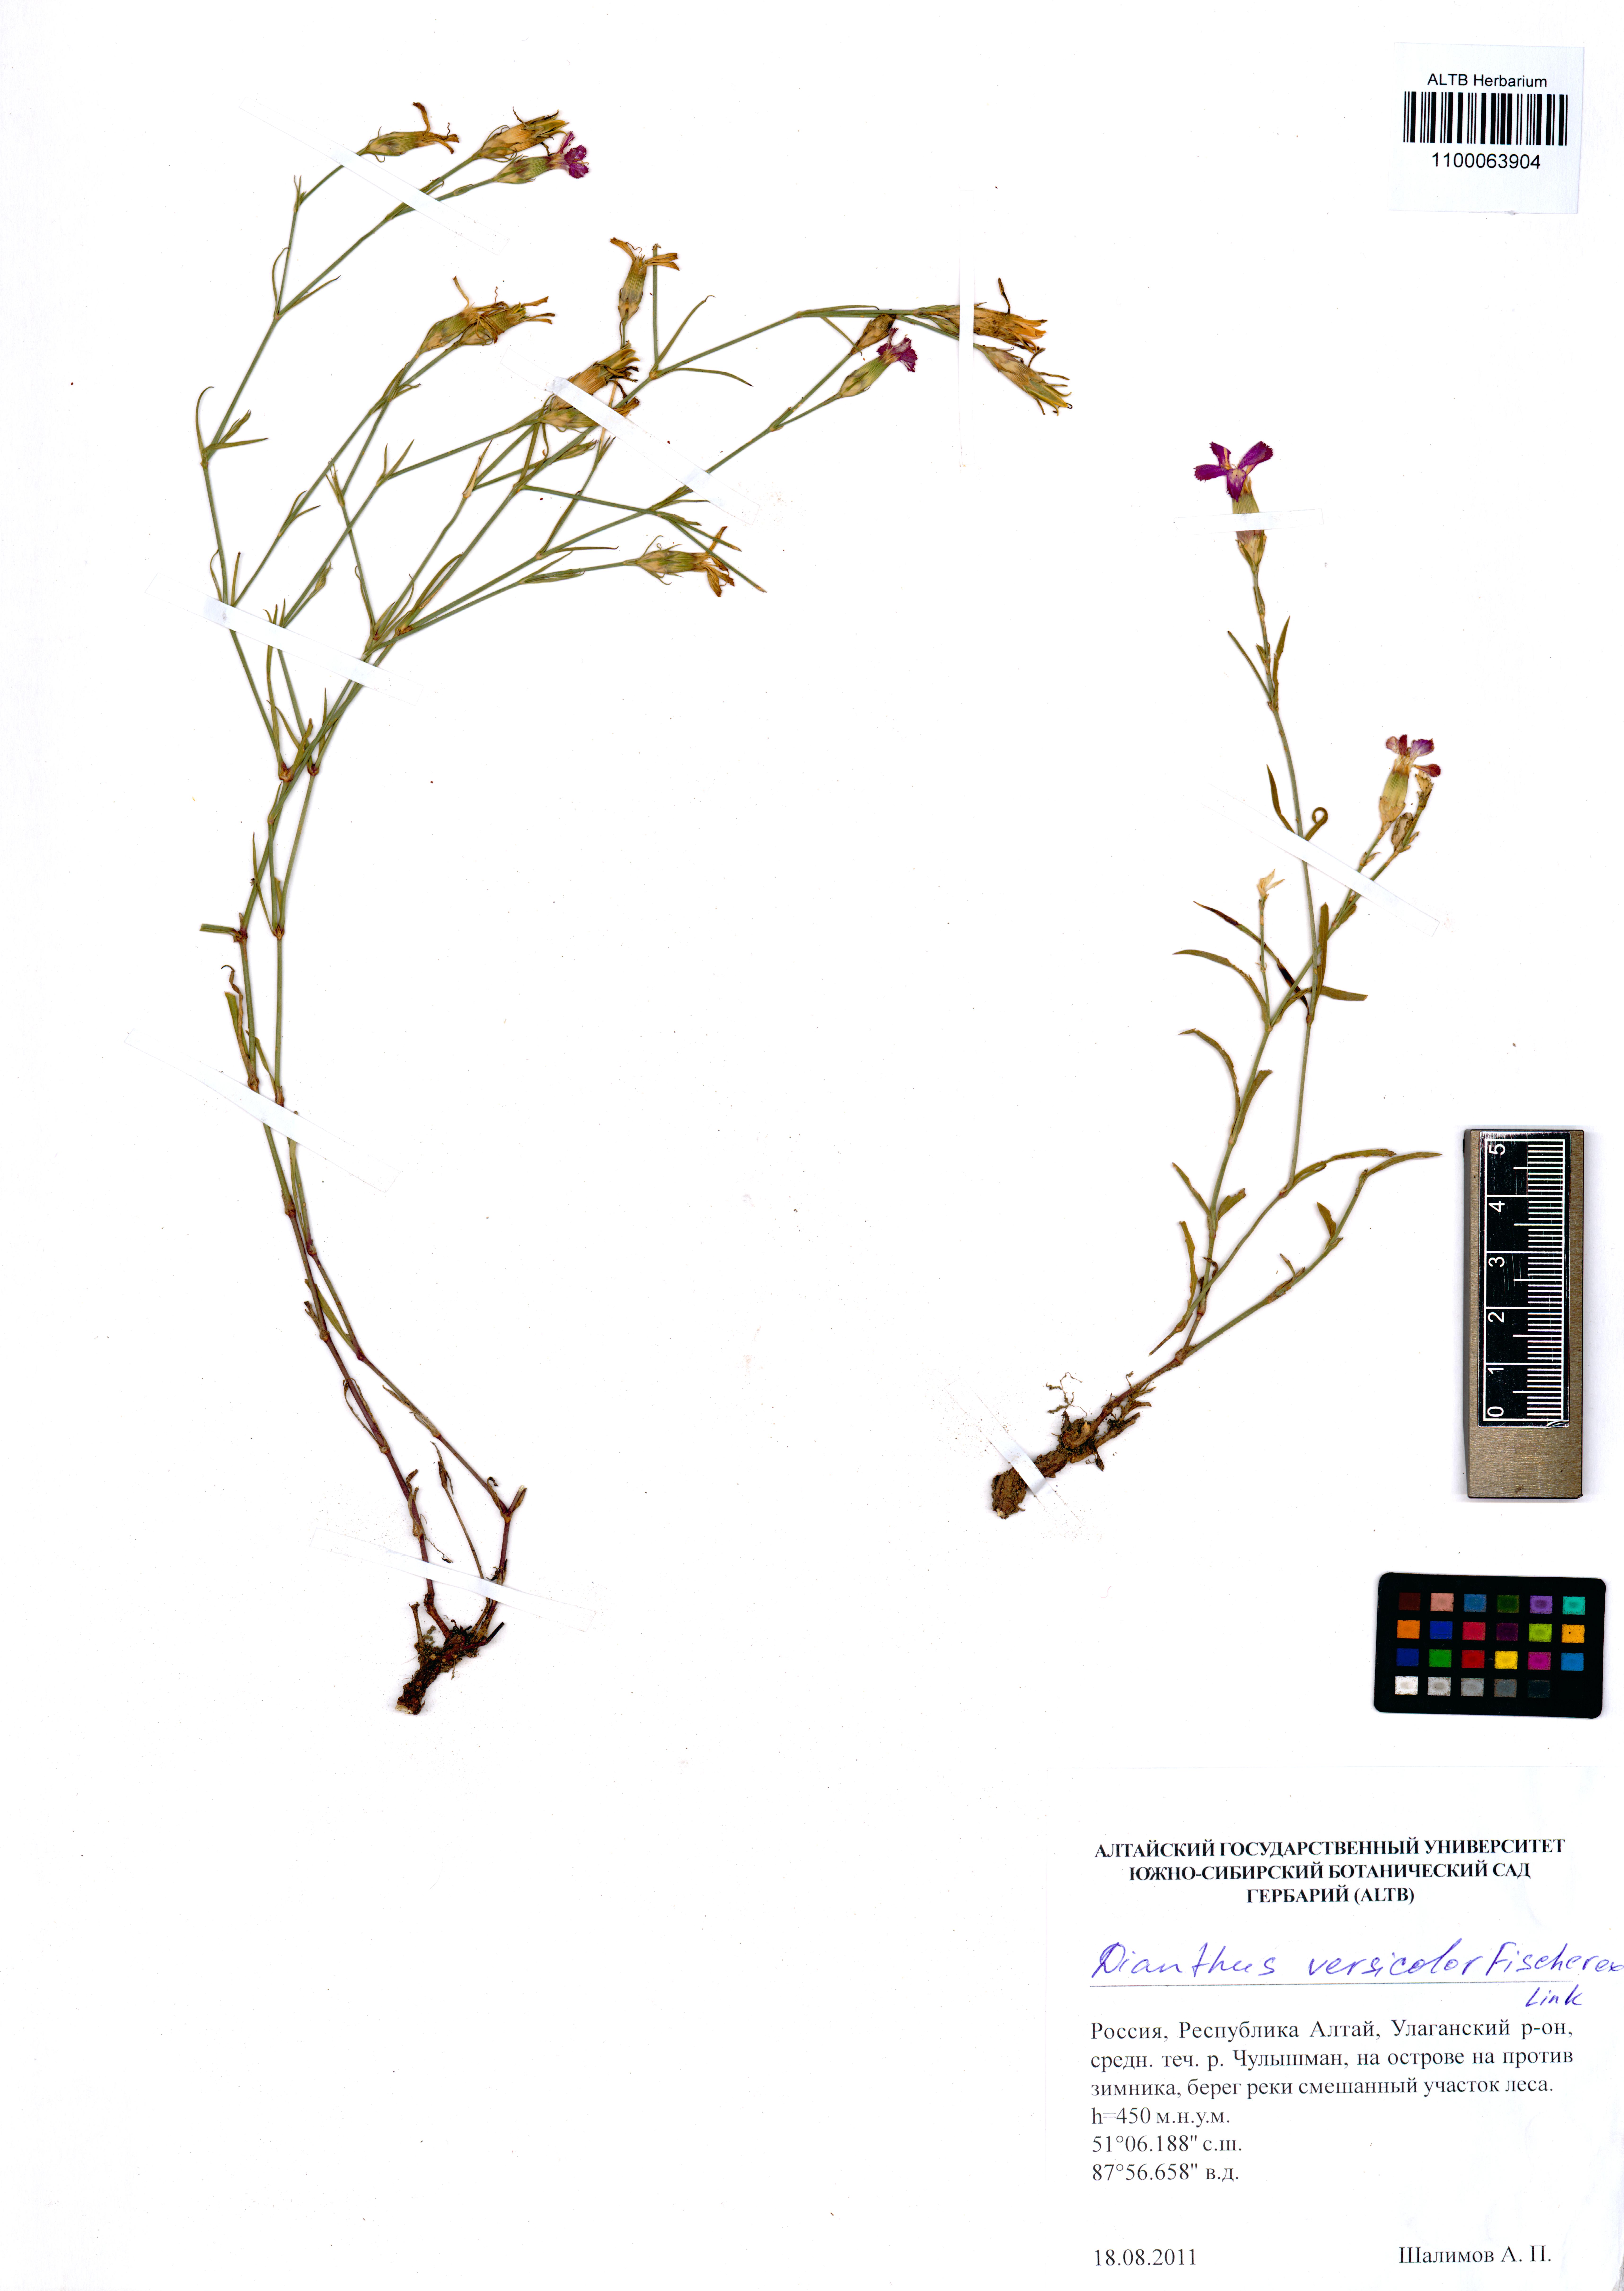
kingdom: Plantae
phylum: Tracheophyta
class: Magnoliopsida
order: Caryophyllales
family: Caryophyllaceae
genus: Dianthus
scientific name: Dianthus chinensis
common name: Rainbow pink
